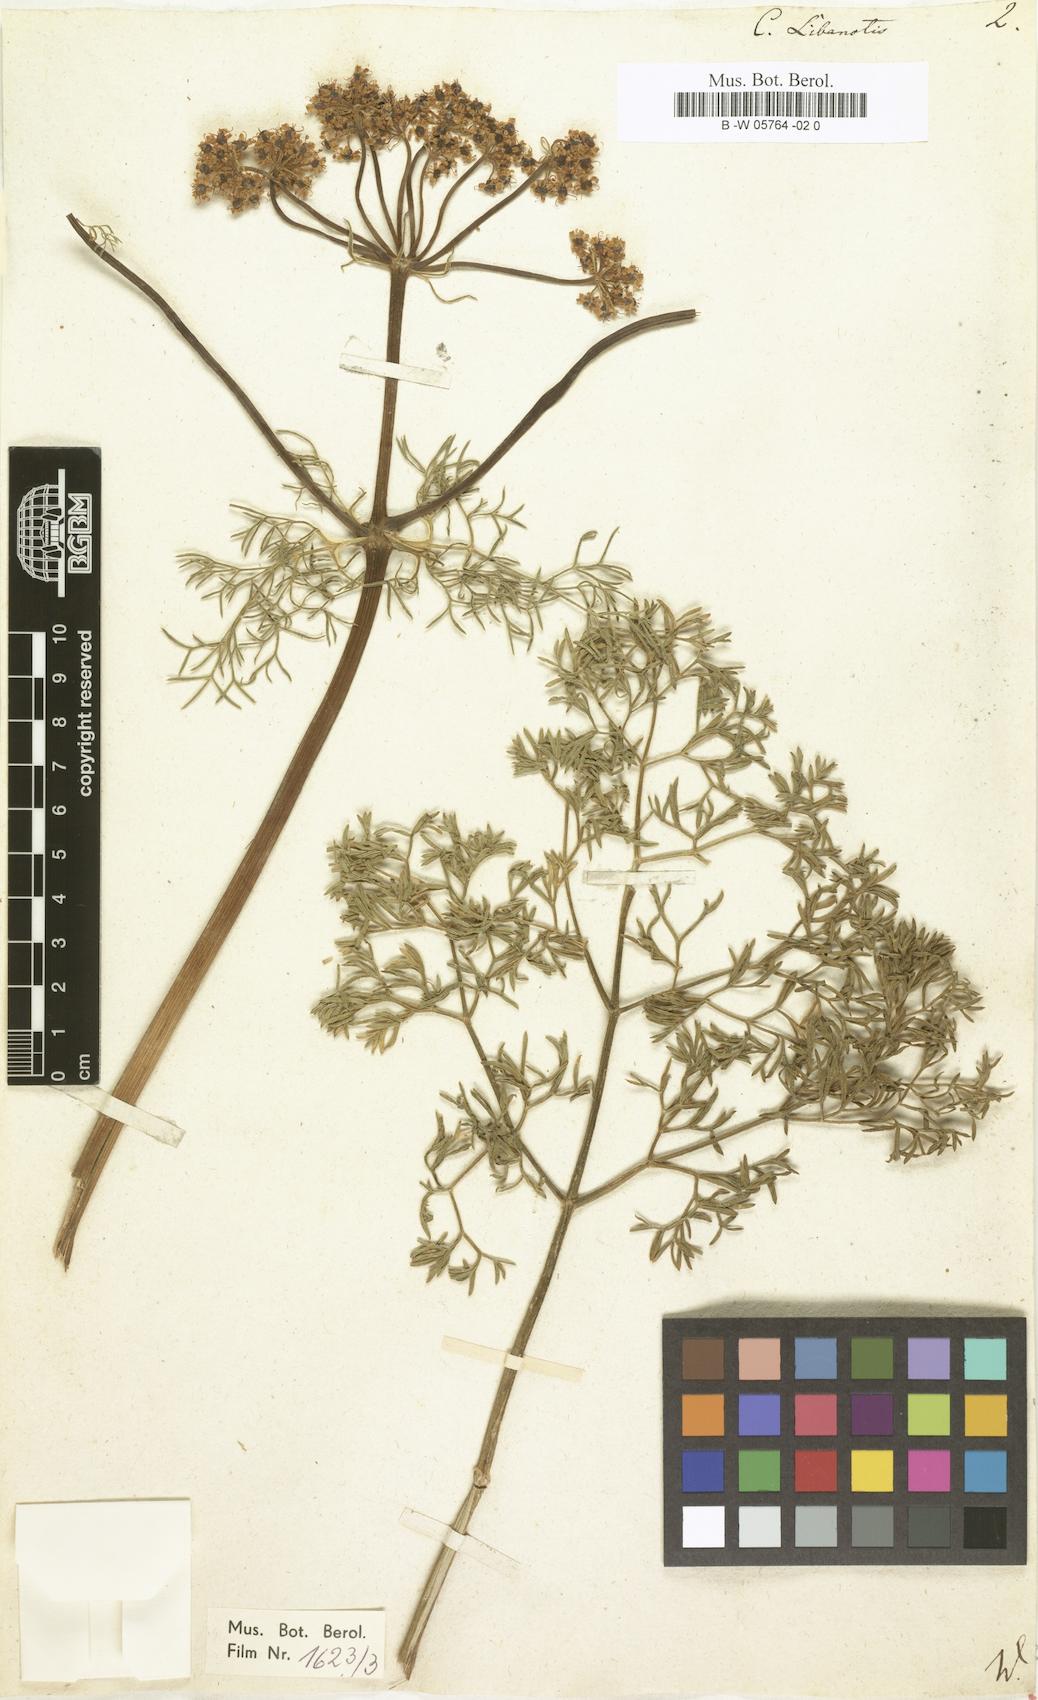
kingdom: Plantae
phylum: Tracheophyta
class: Magnoliopsida
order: Apiales
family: Apiaceae
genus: Cachrys
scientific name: Cachrys libanotis
